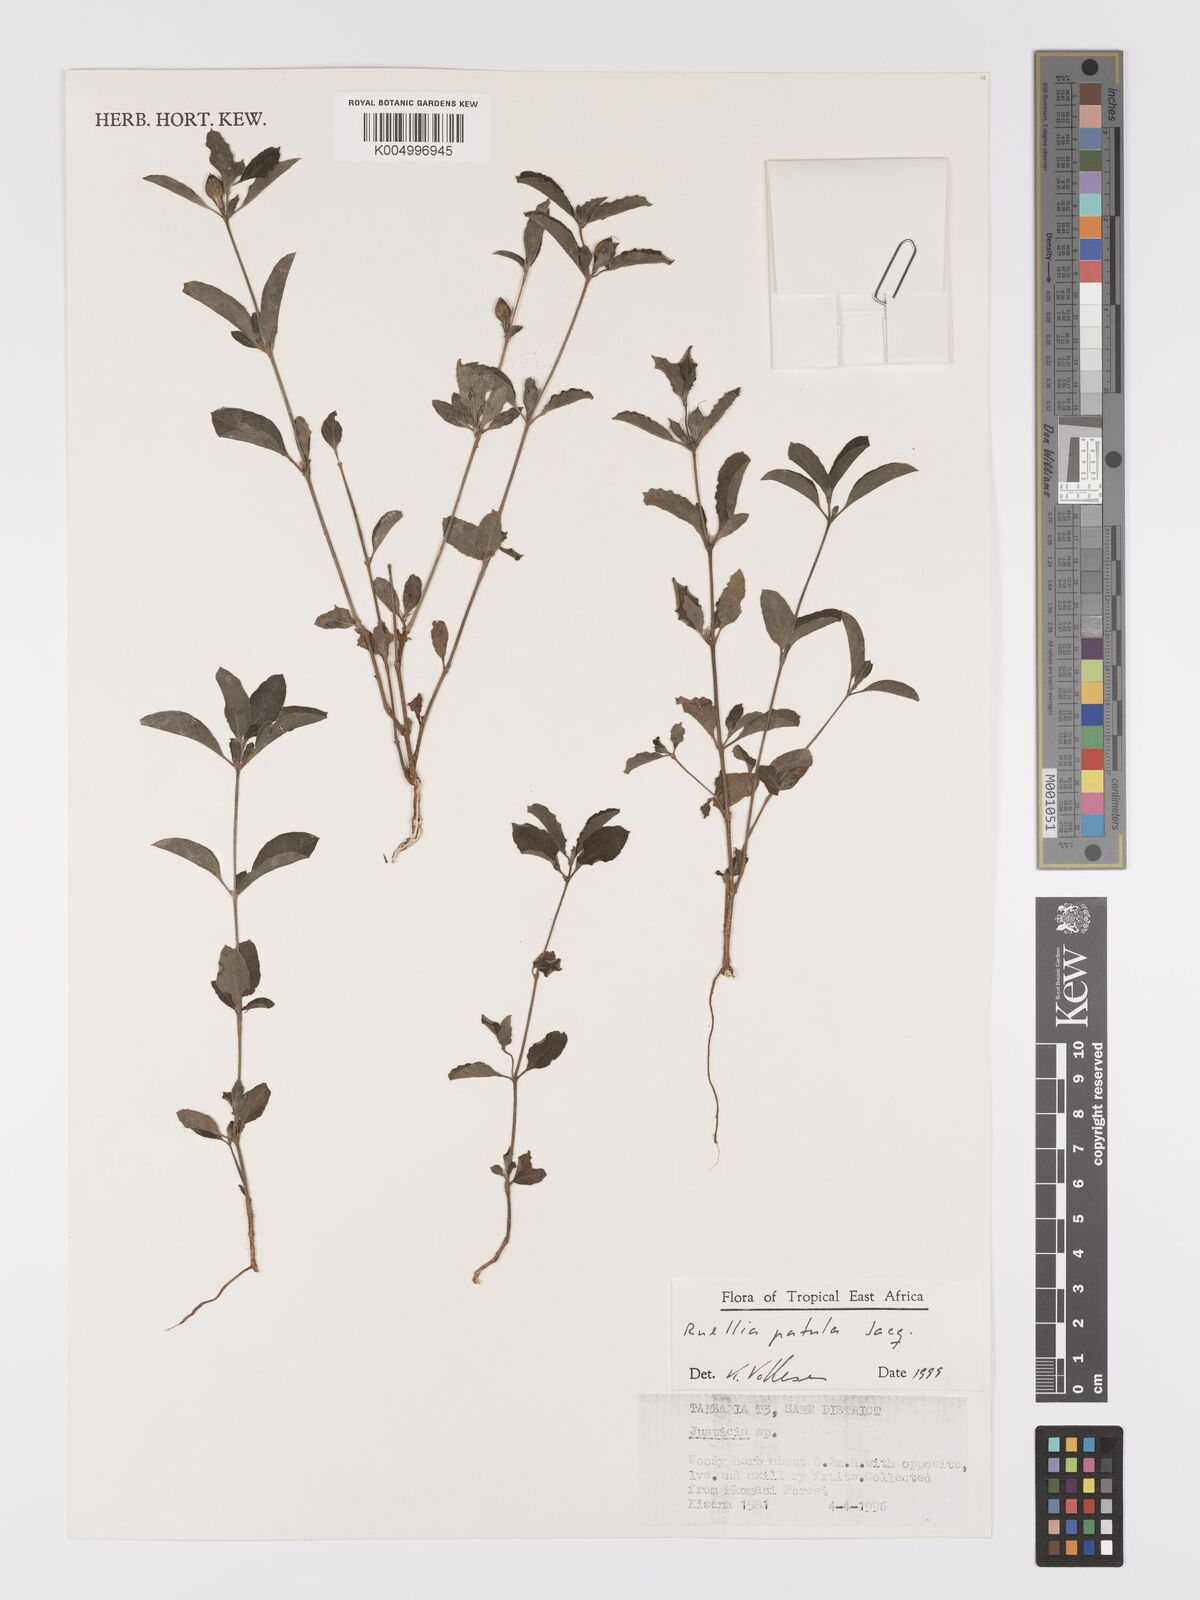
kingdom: Plantae
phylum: Tracheophyta
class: Magnoliopsida
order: Lamiales
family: Acanthaceae
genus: Ruellia
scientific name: Ruellia patula
